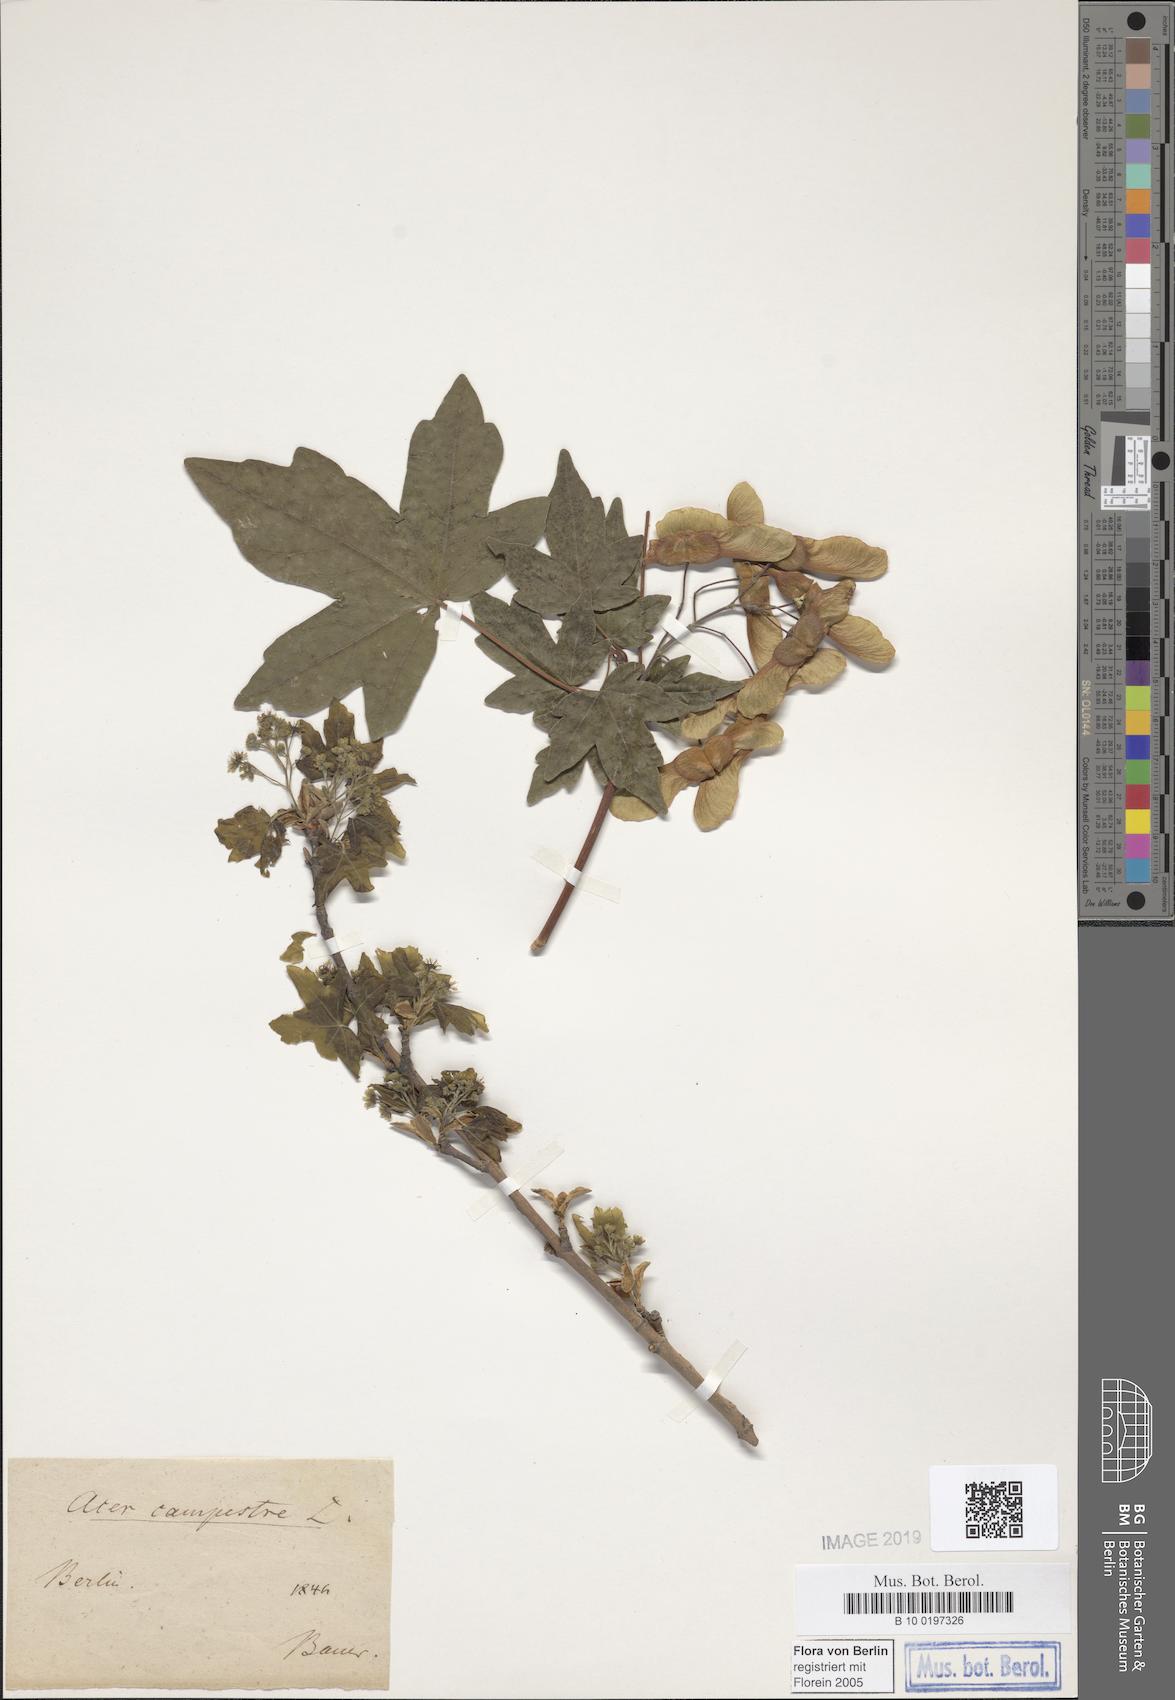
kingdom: Plantae
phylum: Tracheophyta
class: Magnoliopsida
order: Sapindales
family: Sapindaceae
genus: Acer
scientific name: Acer campestre
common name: Field maple
